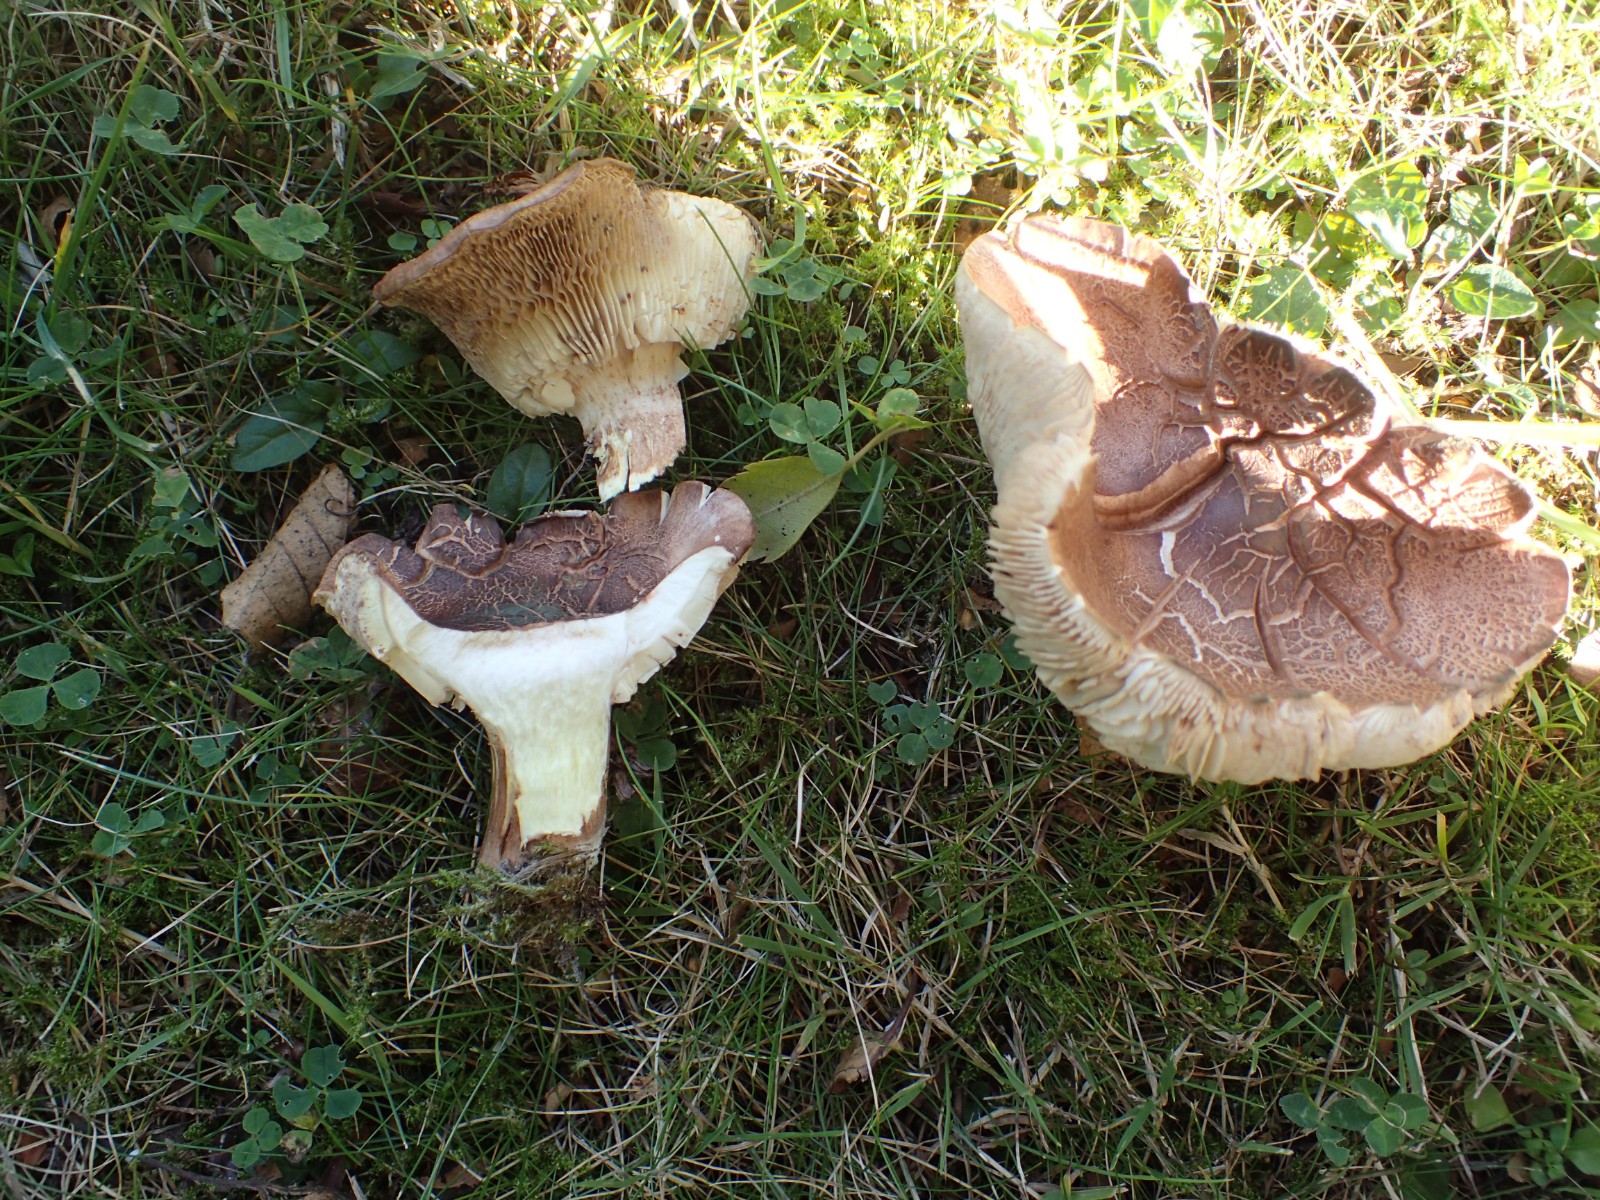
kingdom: Fungi
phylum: Basidiomycota
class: Agaricomycetes
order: Agaricales
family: Tricholomataceae
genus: Tricholoma
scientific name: Tricholoma fulvum
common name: birke-ridderhat
